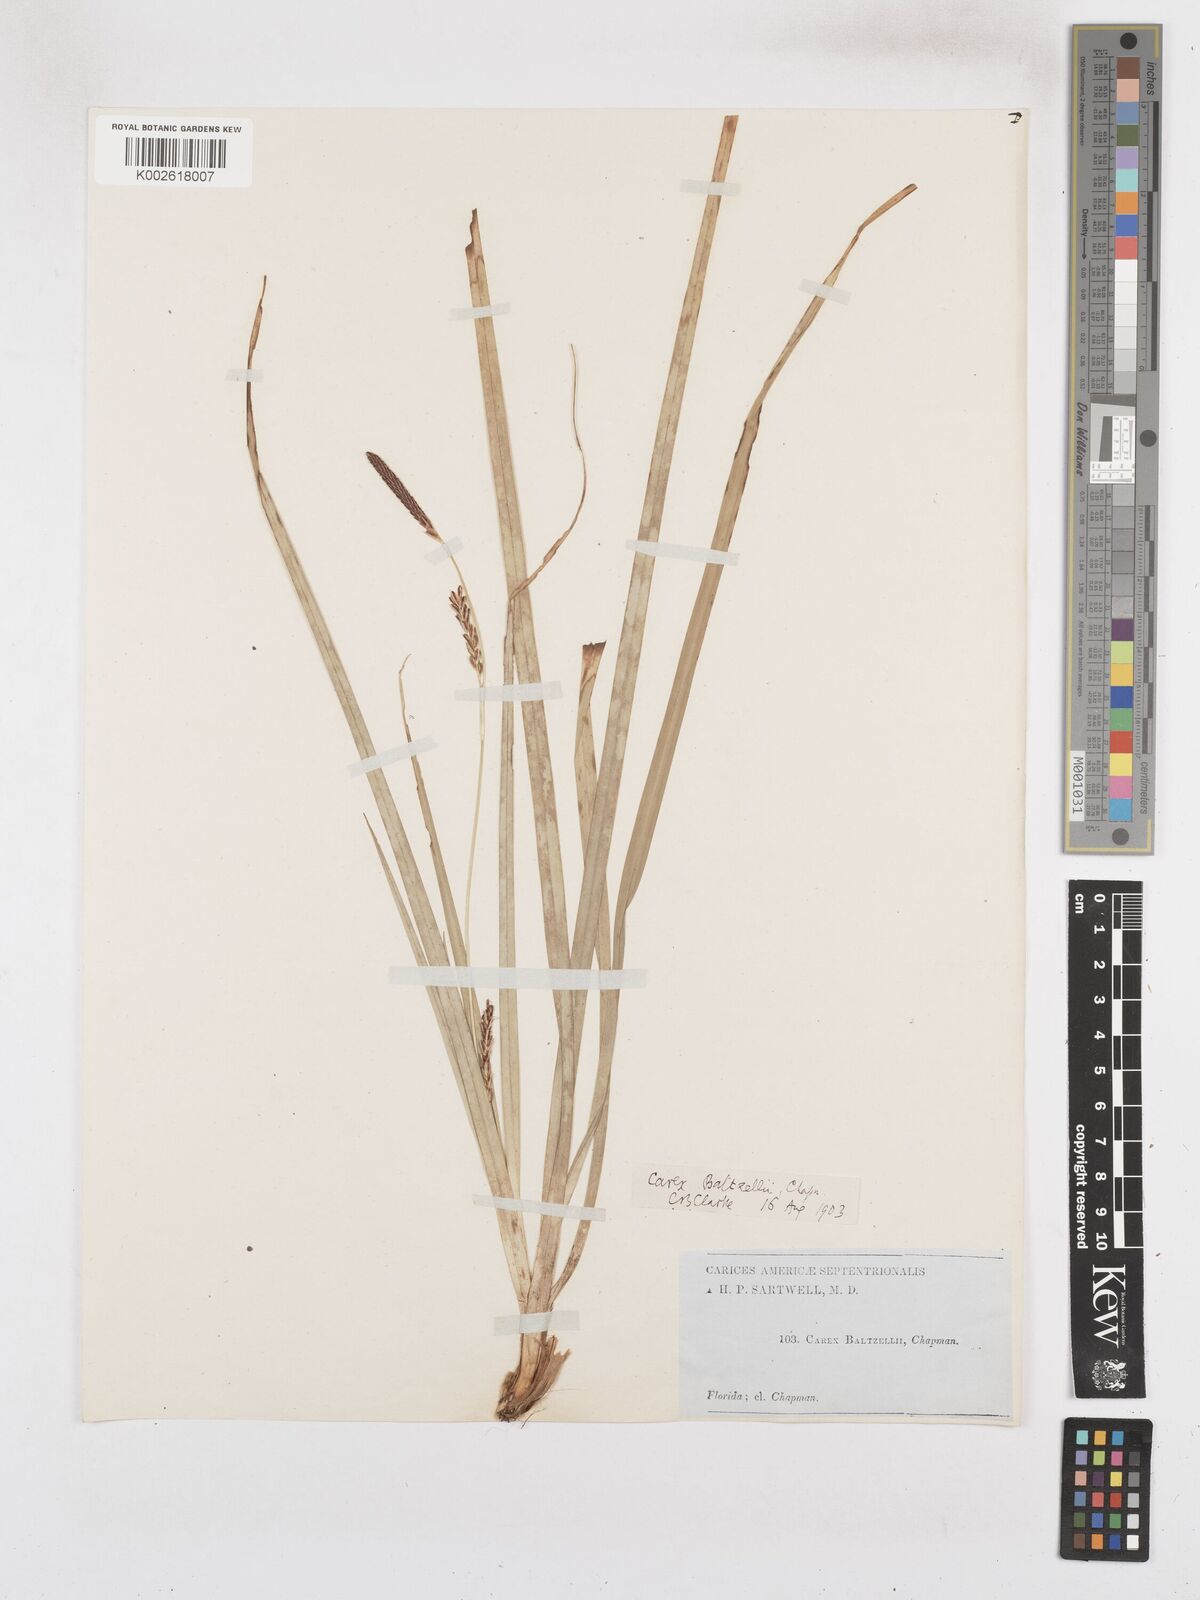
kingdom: Plantae
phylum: Tracheophyta
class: Liliopsida
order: Poales
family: Cyperaceae
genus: Carex
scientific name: Carex baltzellii
